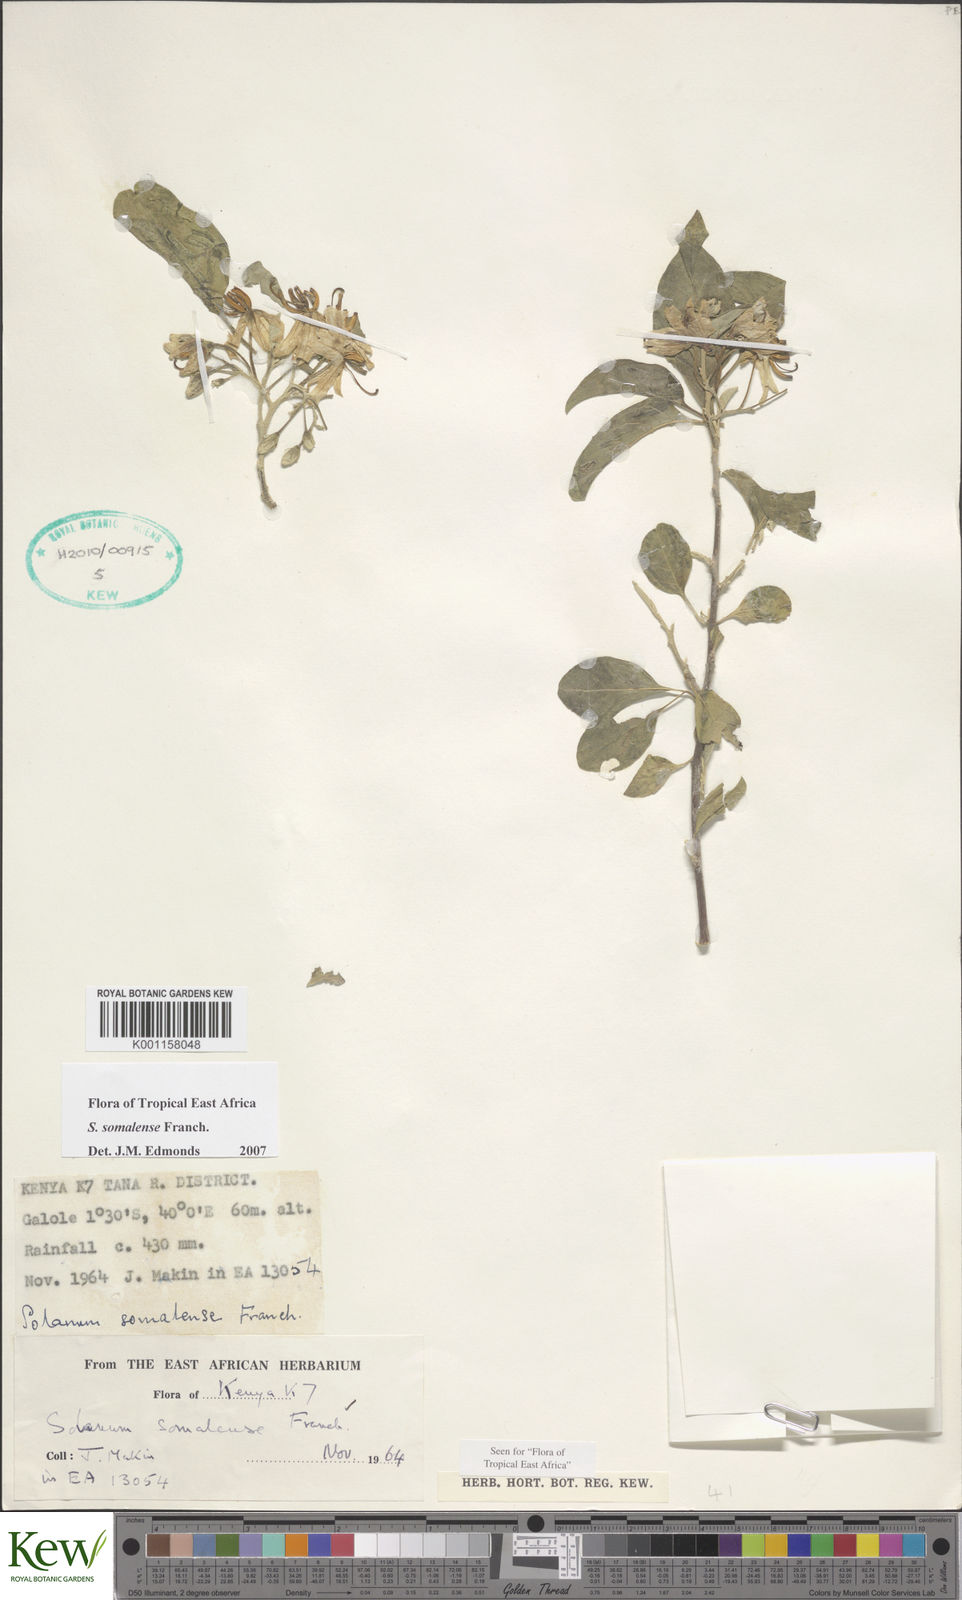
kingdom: Plantae
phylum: Tracheophyta
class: Magnoliopsida
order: Solanales
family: Solanaceae
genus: Solanum
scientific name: Solanum somalense
